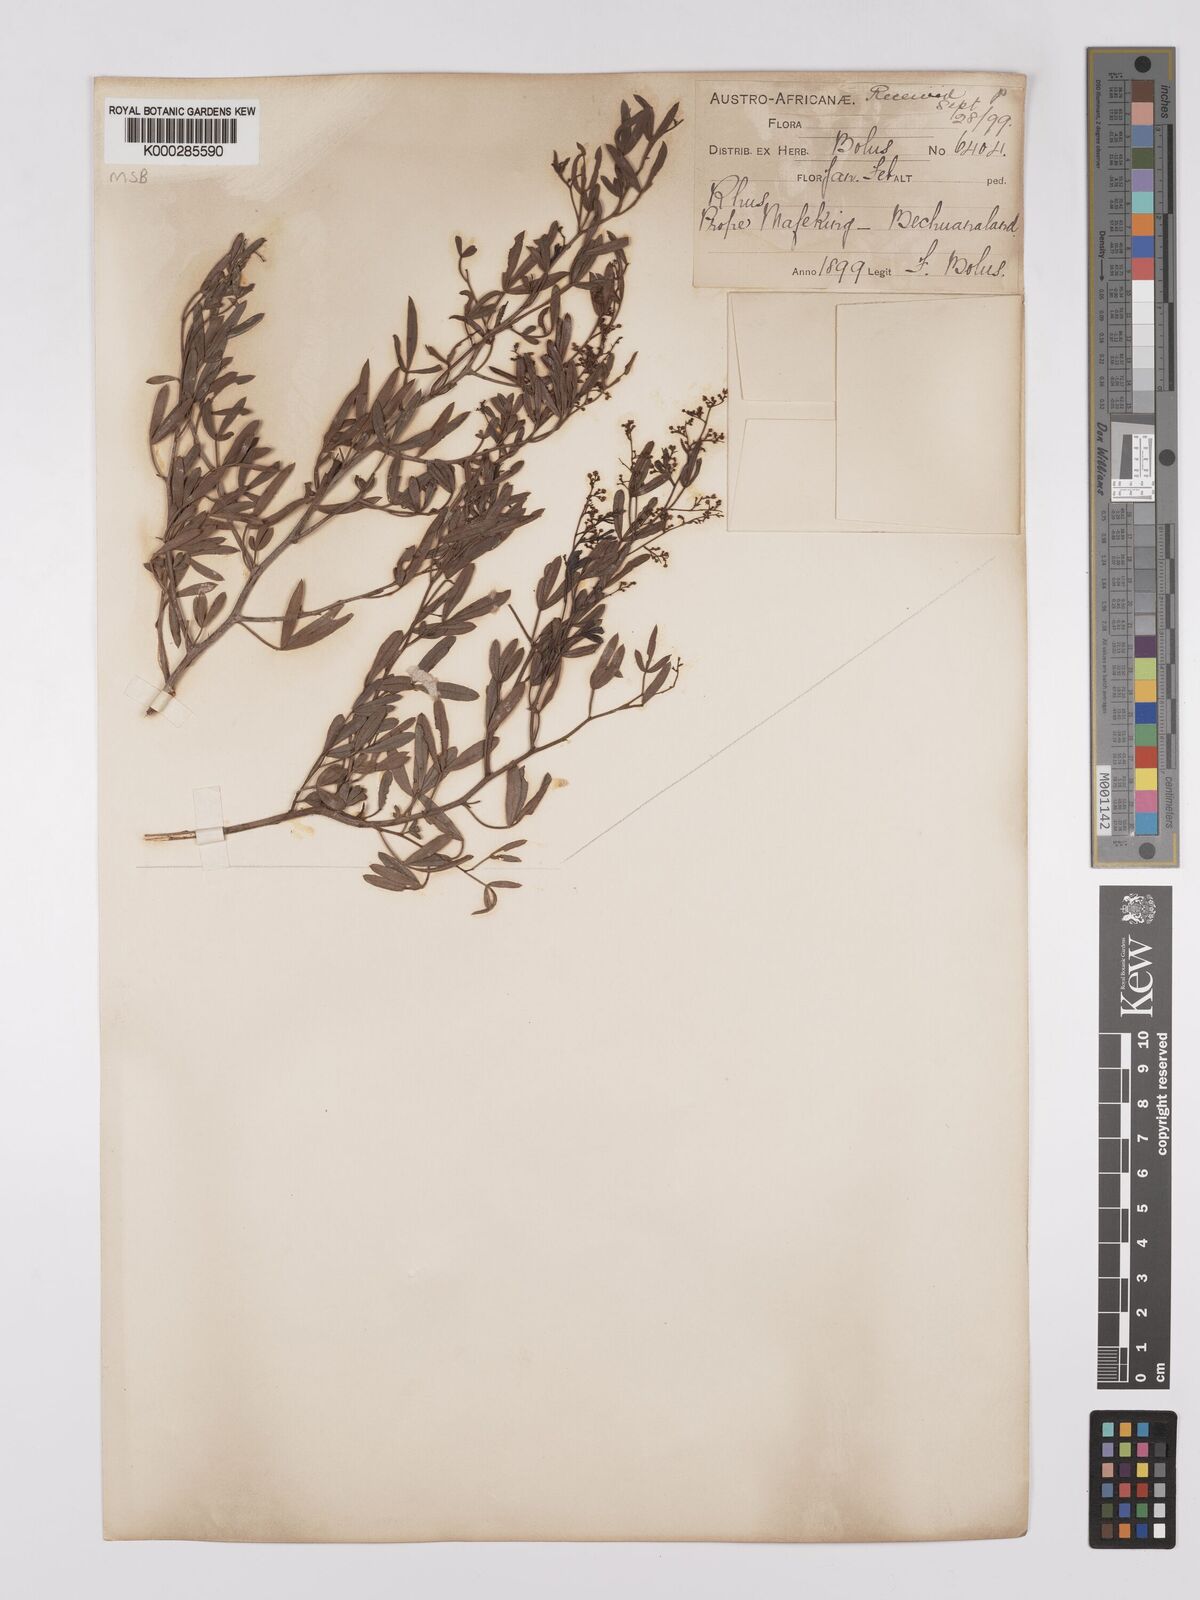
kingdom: Plantae
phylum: Tracheophyta
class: Magnoliopsida
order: Sapindales
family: Anacardiaceae
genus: Searsia
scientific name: Searsia ciliata
